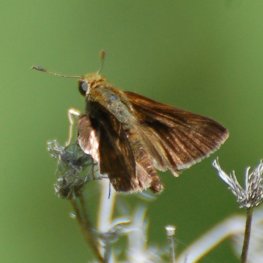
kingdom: Animalia
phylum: Arthropoda
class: Insecta
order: Lepidoptera
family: Hesperiidae
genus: Euphyes
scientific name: Euphyes vestris
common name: Dun Skipper
